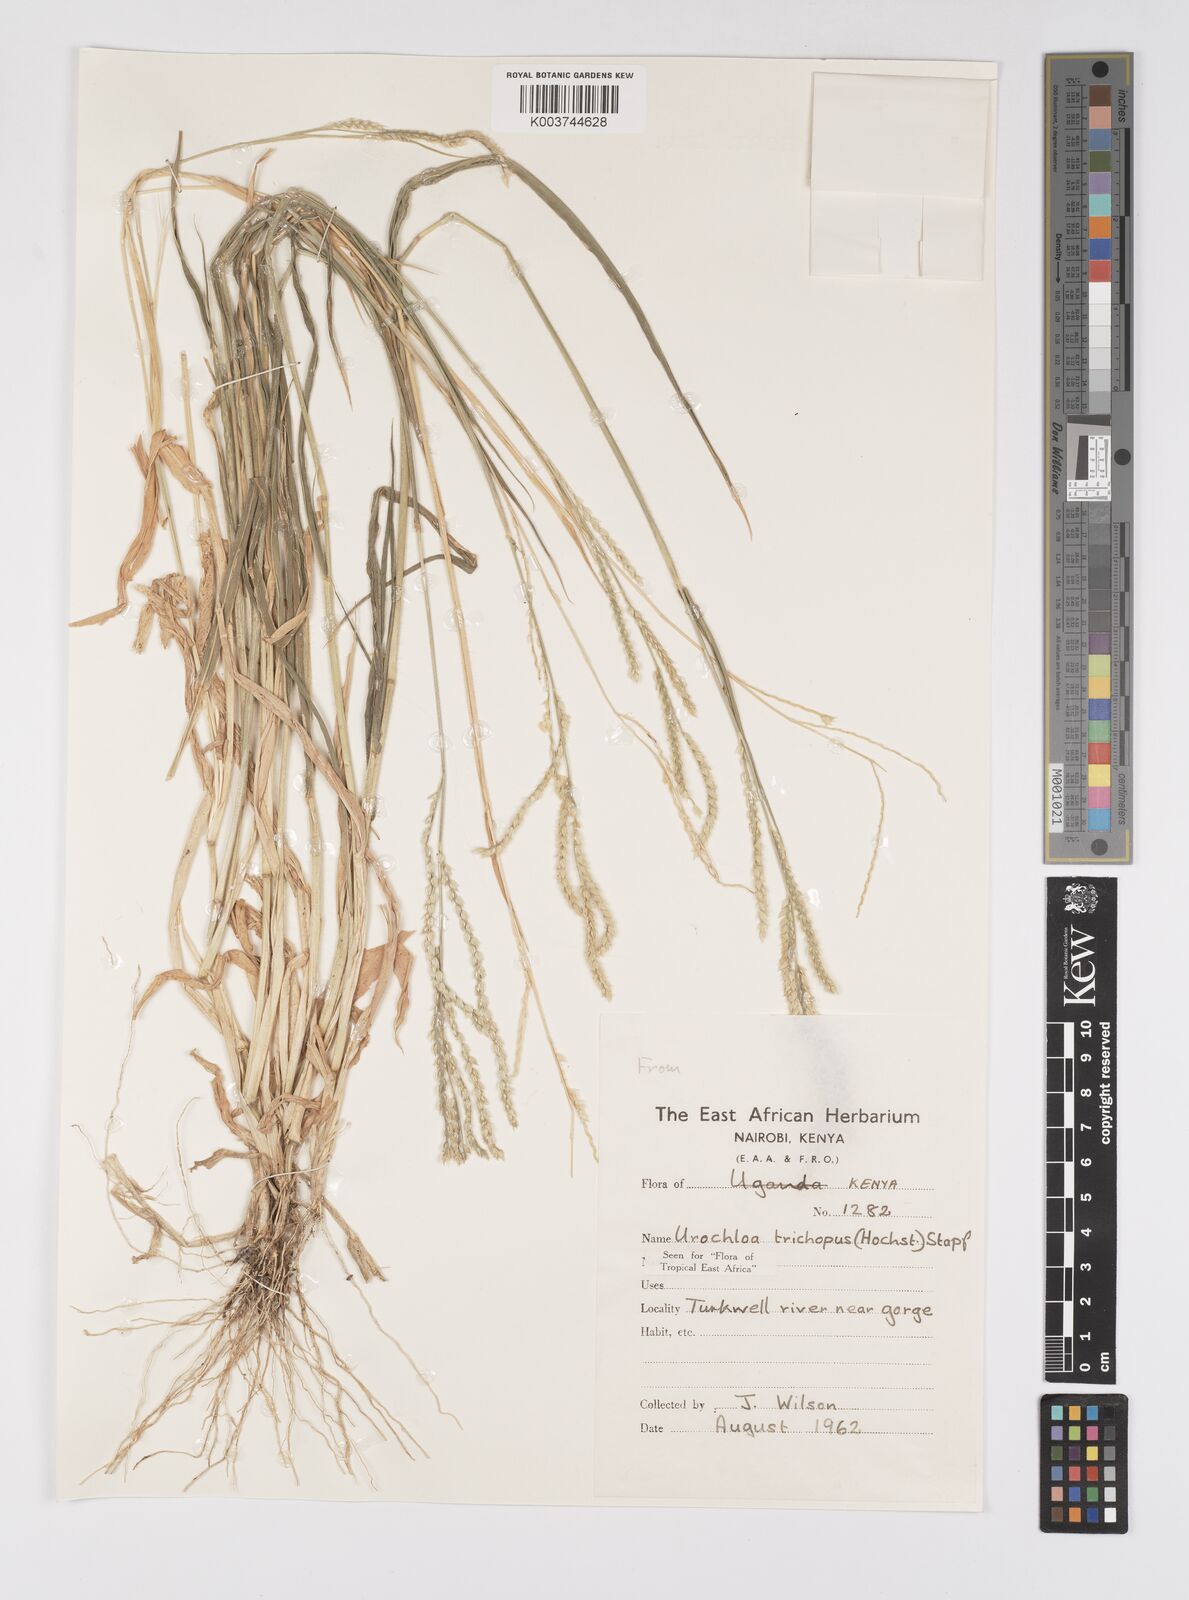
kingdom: Plantae
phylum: Tracheophyta
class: Liliopsida
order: Poales
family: Poaceae
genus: Urochloa
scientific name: Urochloa trichopus
